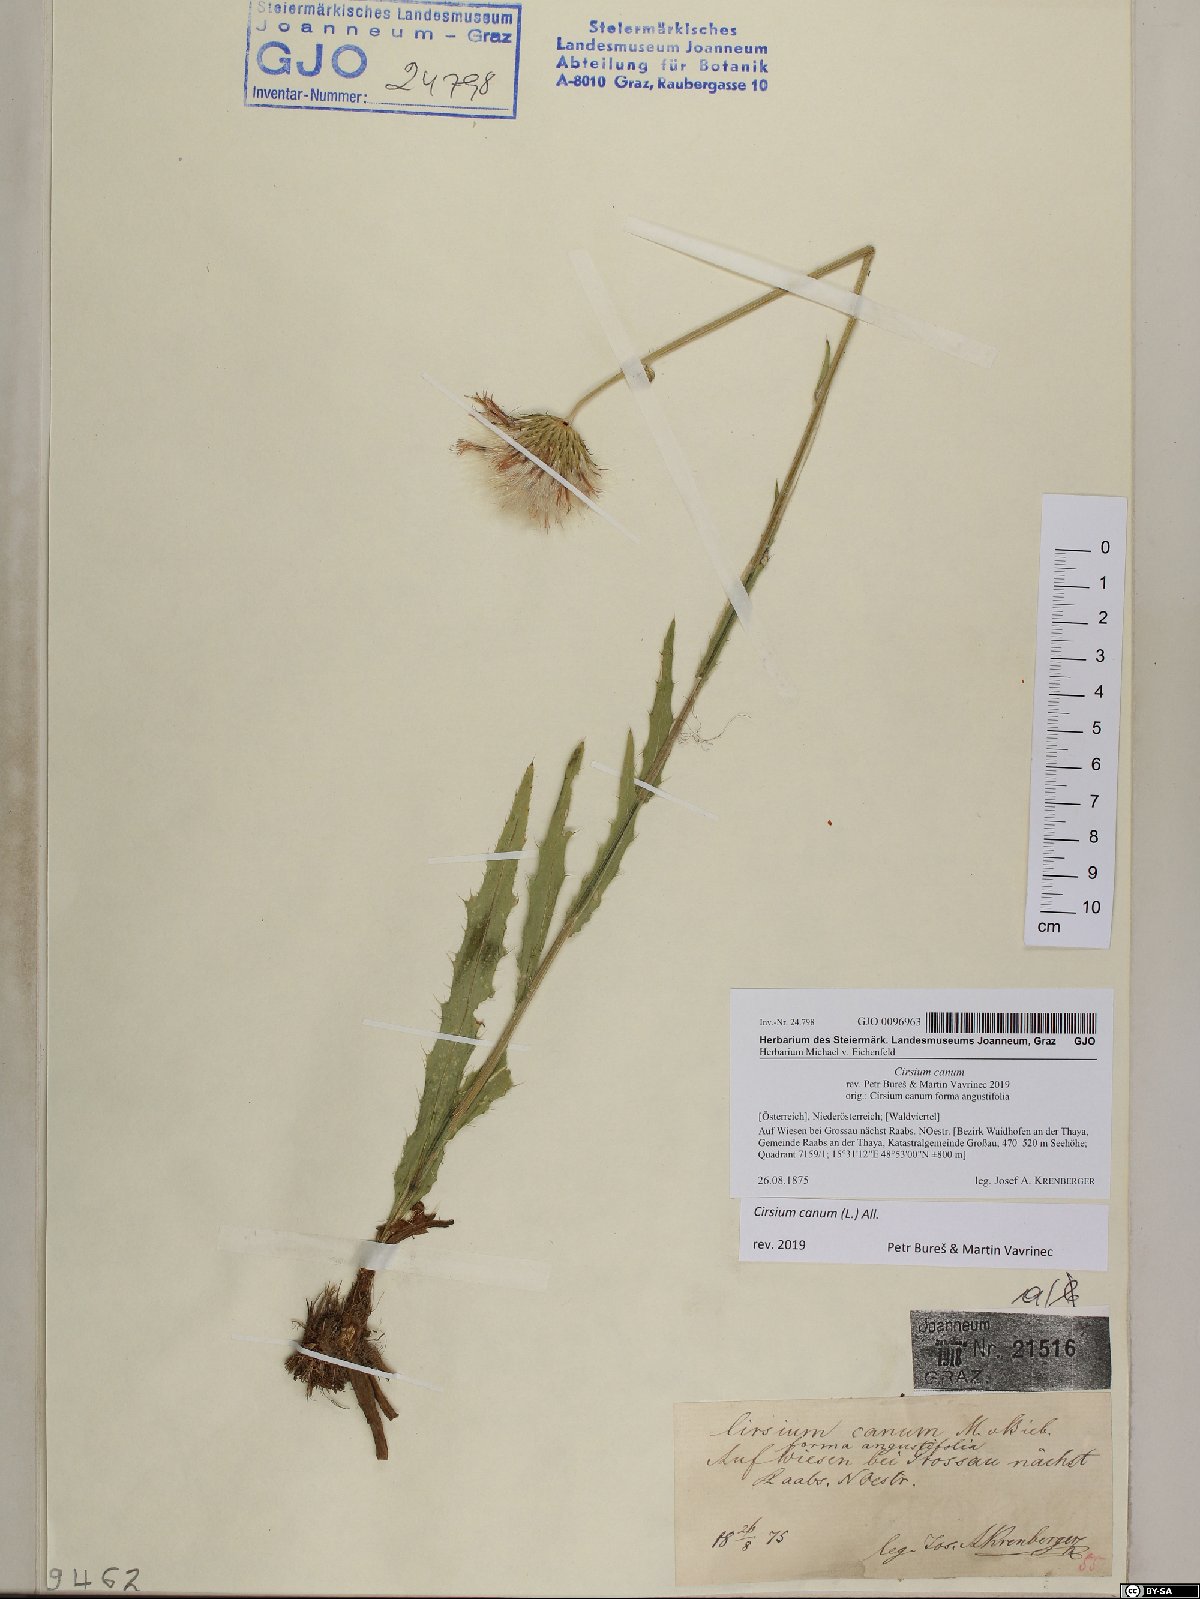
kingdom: Plantae
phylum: Tracheophyta
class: Magnoliopsida
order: Asterales
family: Asteraceae
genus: Cirsium
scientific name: Cirsium canum
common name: Queen anne's thistle
